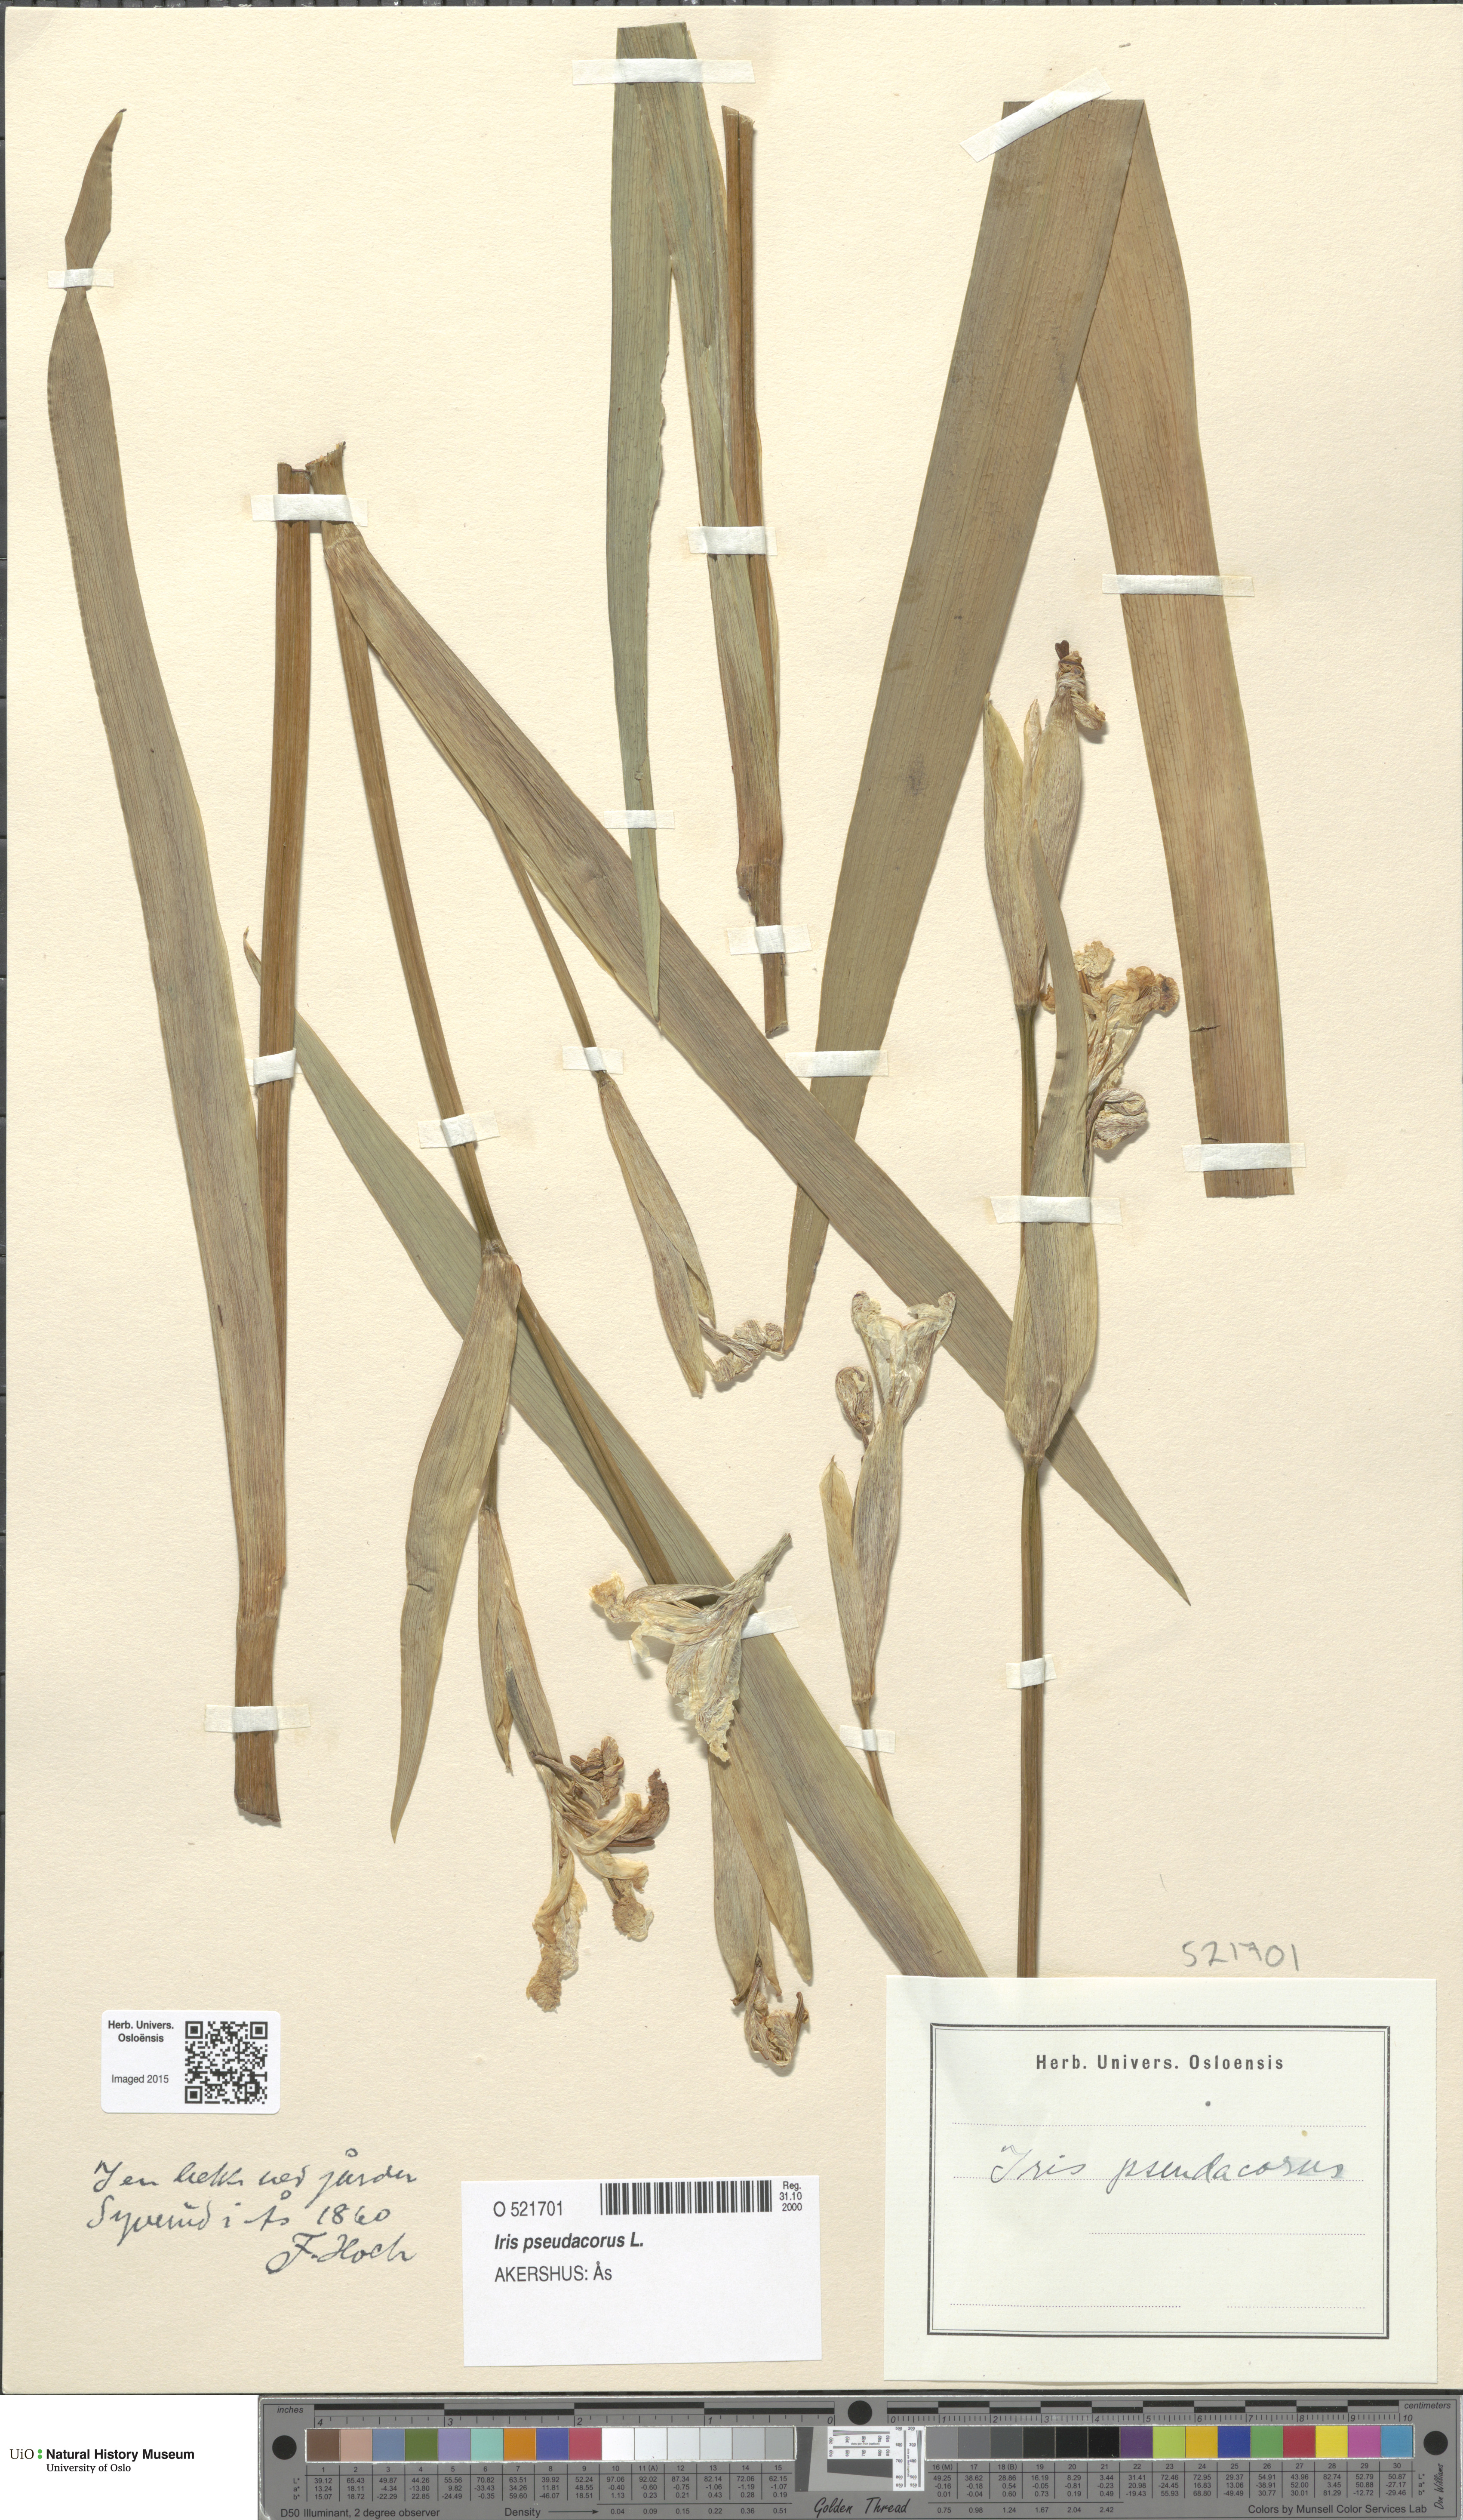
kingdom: Plantae
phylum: Tracheophyta
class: Liliopsida
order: Asparagales
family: Iridaceae
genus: Iris
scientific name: Iris pseudacorus
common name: Yellow flag
